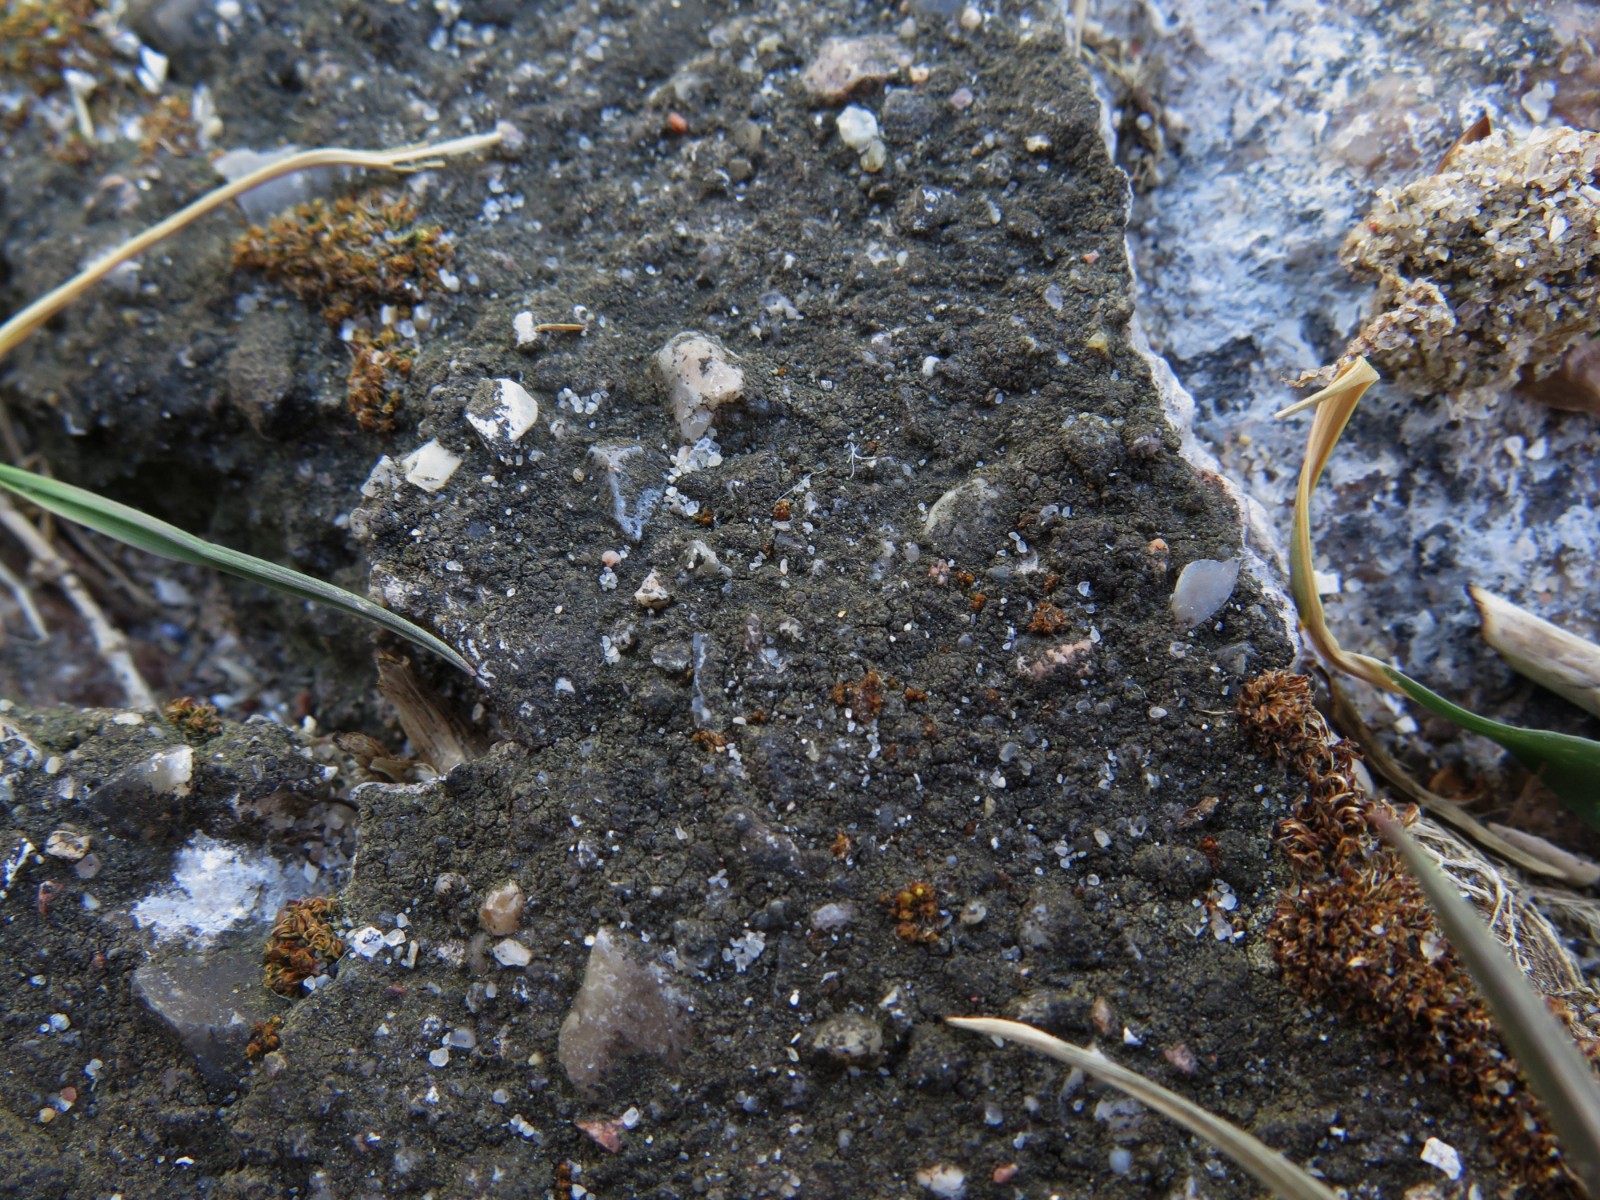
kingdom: Fungi
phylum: Ascomycota
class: Eurotiomycetes
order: Verrucariales
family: Verrucariaceae
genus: Verrucaria
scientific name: Verrucaria nigrescens
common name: sortbrun vortelav
